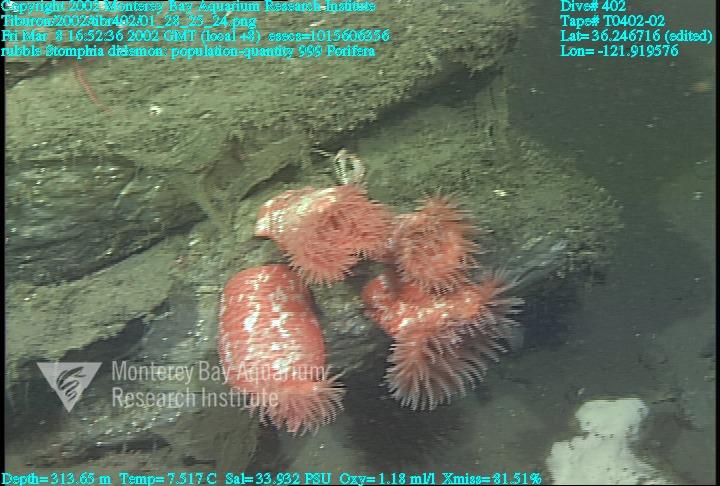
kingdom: Animalia
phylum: Porifera
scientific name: Porifera
